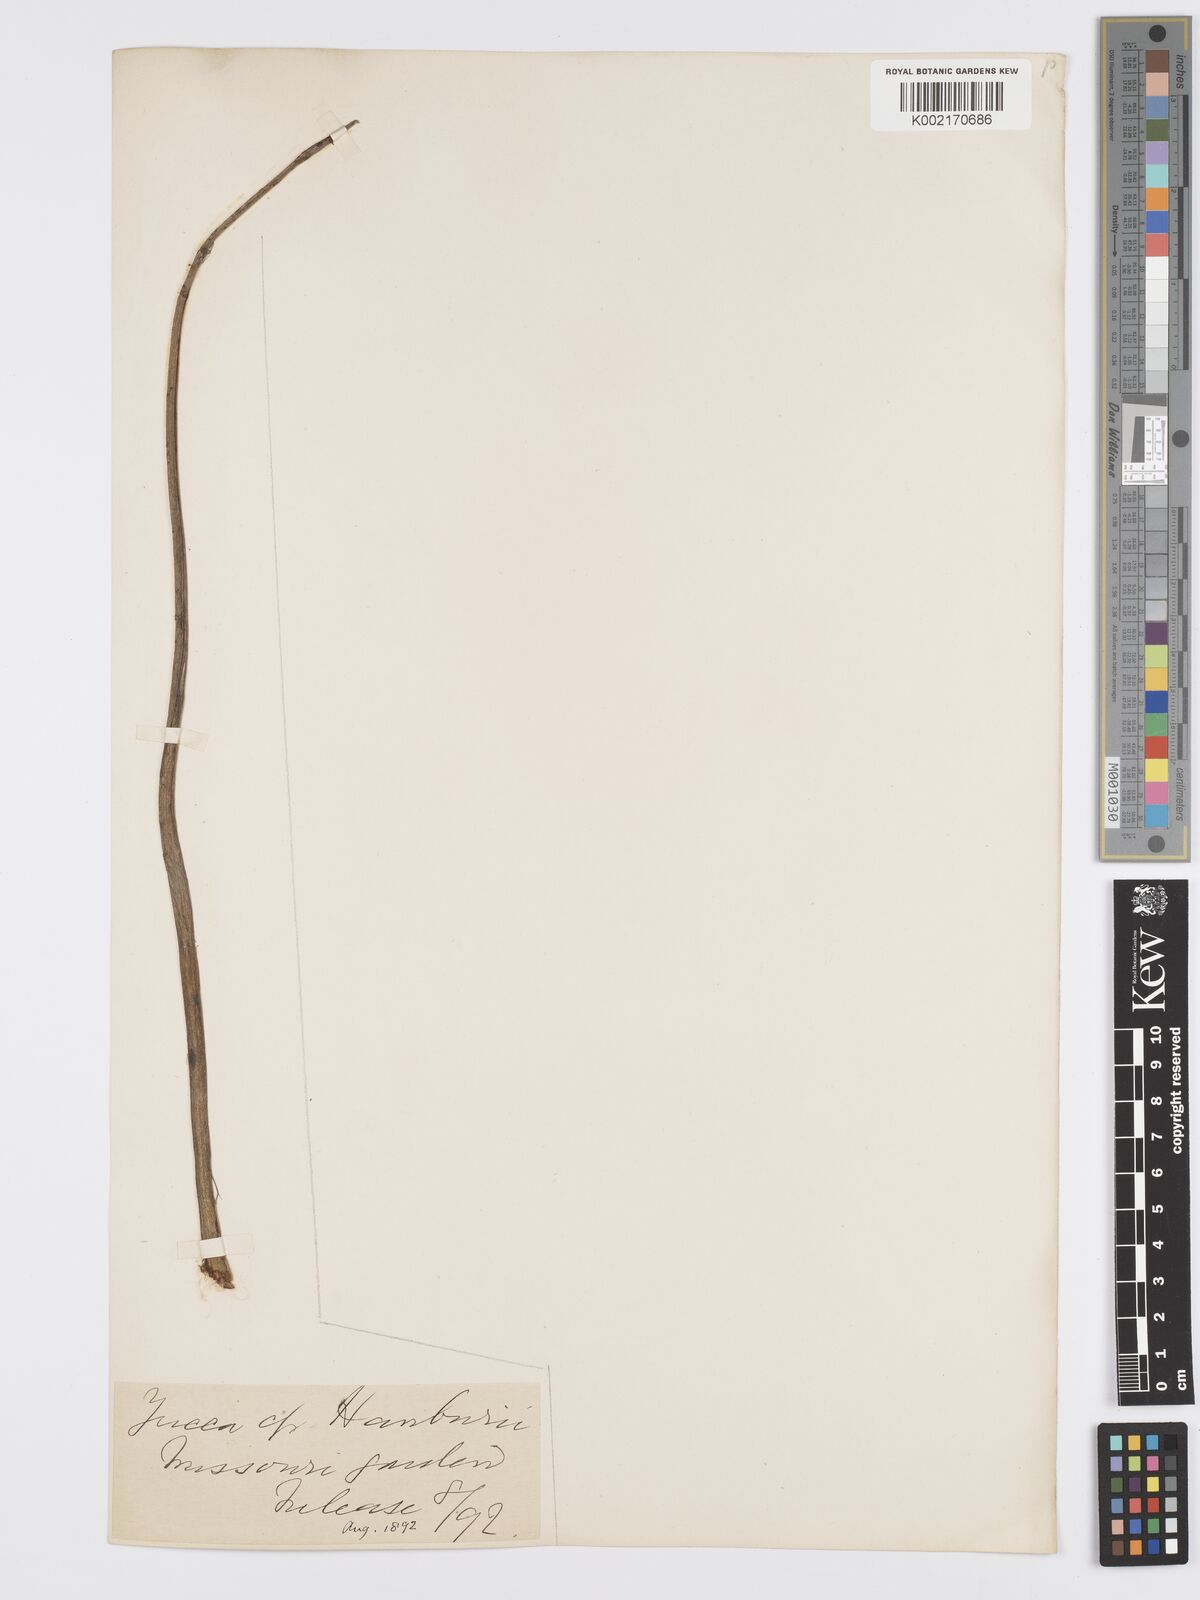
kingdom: Plantae
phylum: Tracheophyta
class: Liliopsida
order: Asparagales
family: Asparagaceae
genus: Yucca
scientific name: Yucca baccata
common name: Banana yucca
